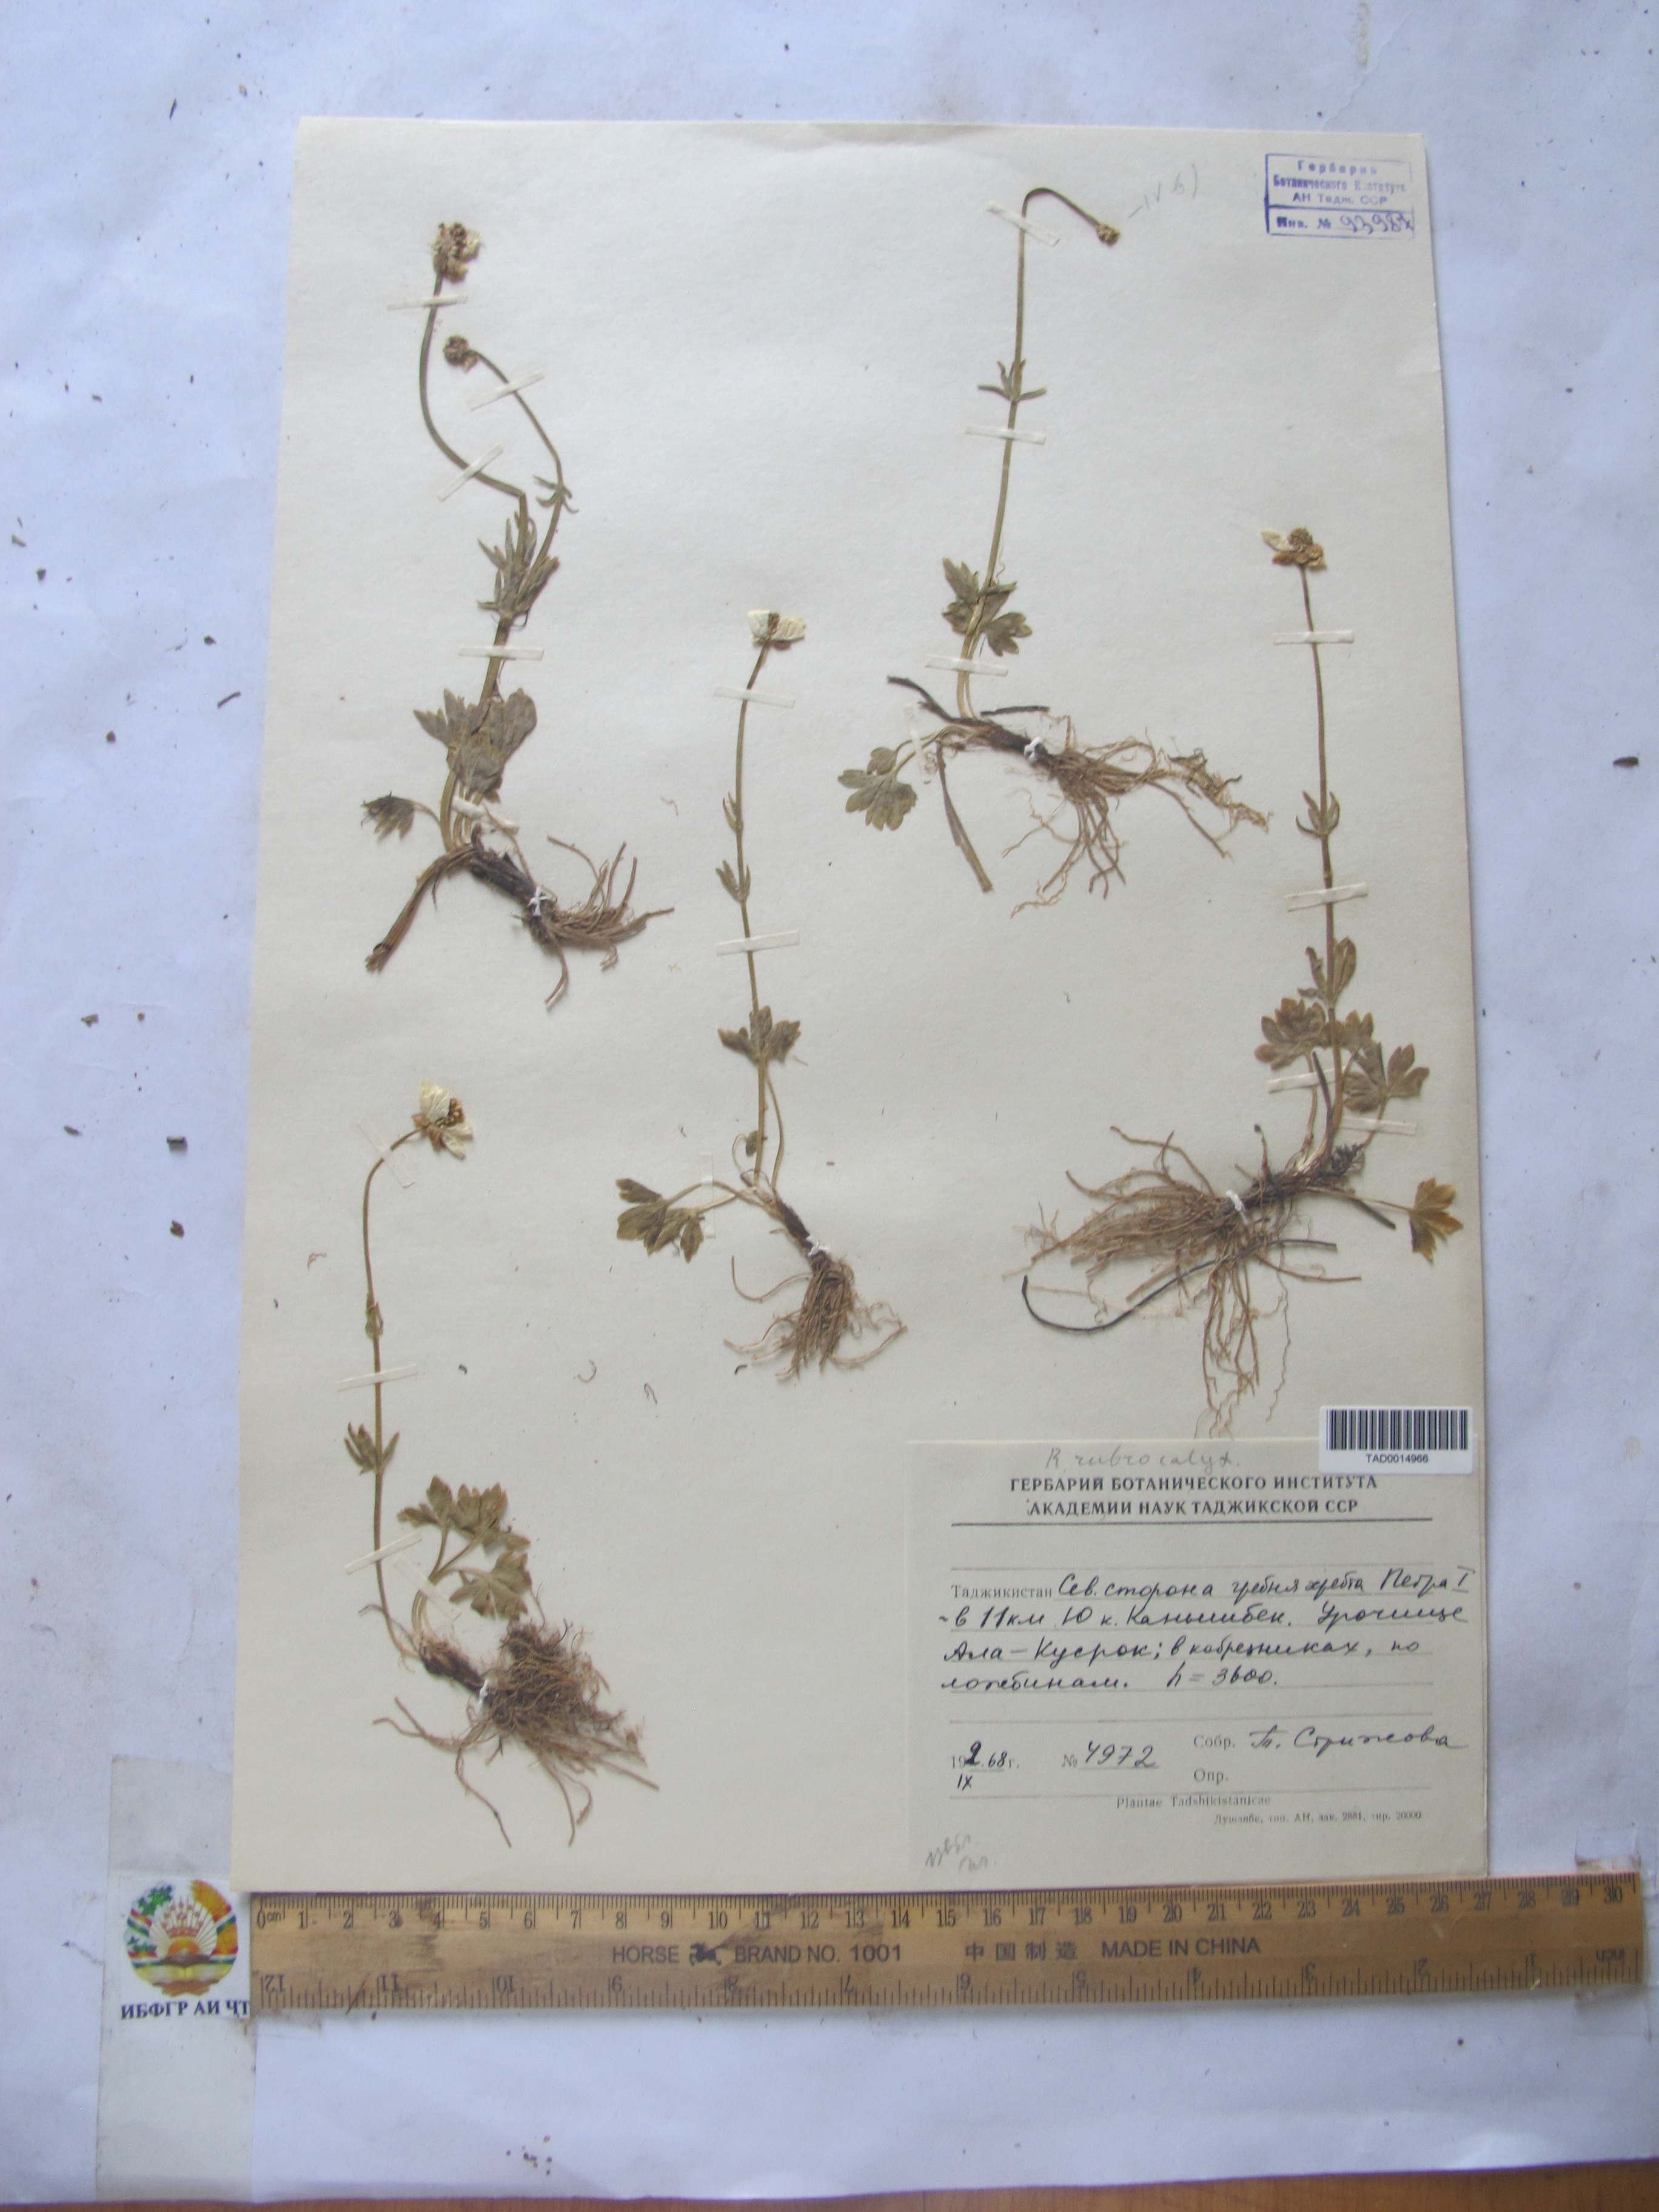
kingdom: Plantae
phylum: Tracheophyta
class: Magnoliopsida
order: Ranunculales
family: Ranunculaceae
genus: Ranunculus
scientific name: Ranunculus rubrocalyx
